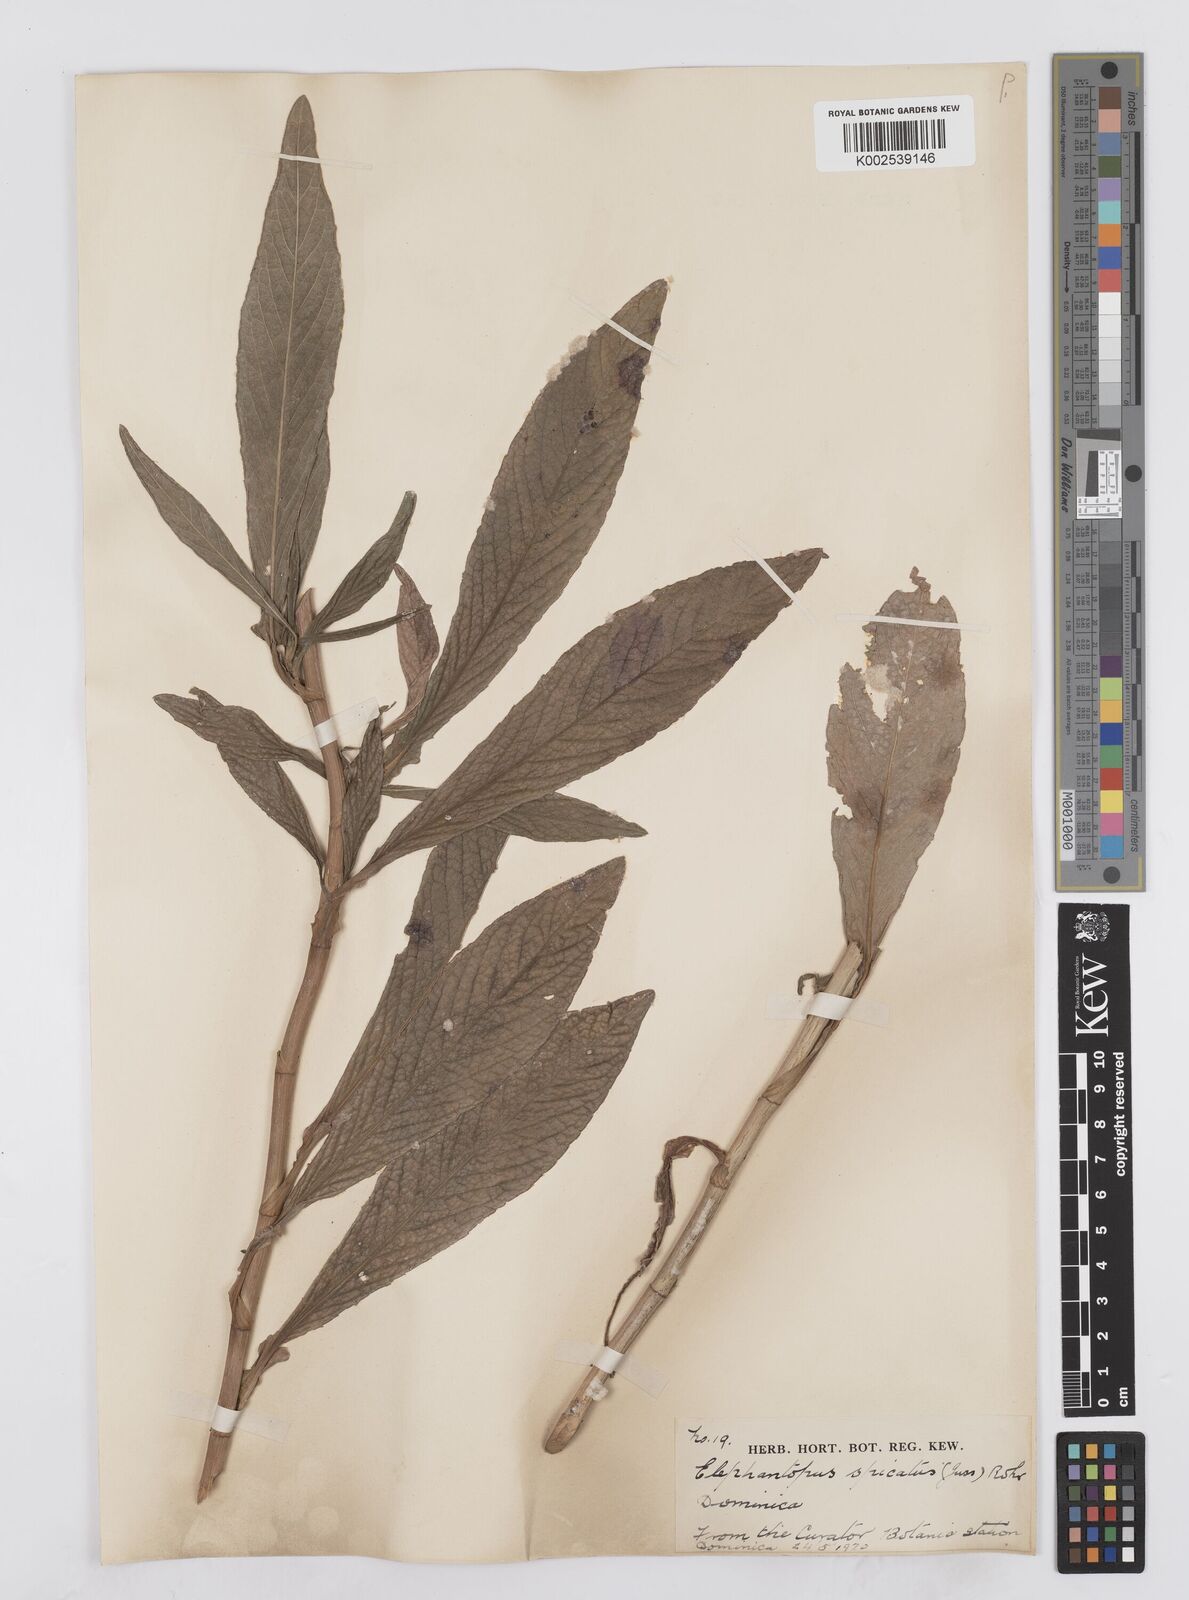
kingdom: Plantae
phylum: Tracheophyta
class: Magnoliopsida
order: Asterales
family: Asteraceae
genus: Pseudelephantopus
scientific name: Pseudelephantopus spicatus
